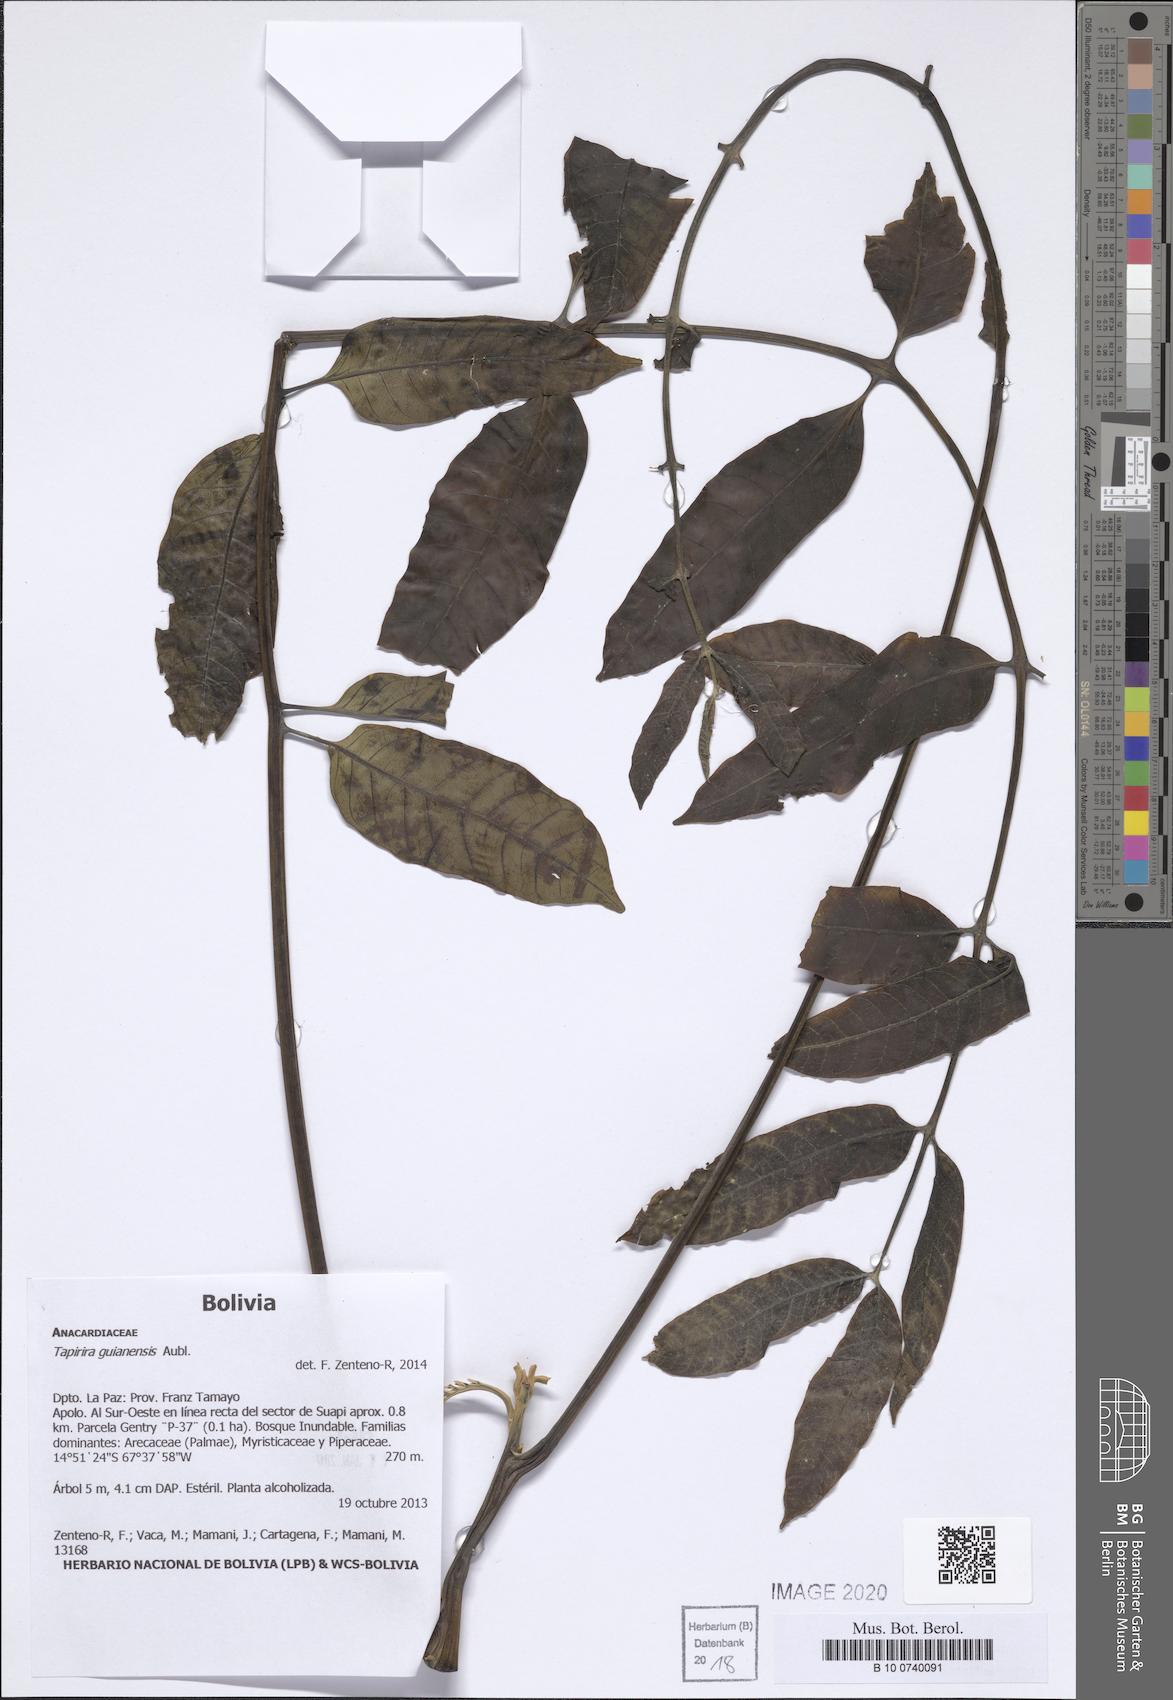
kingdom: Plantae
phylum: Tracheophyta
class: Magnoliopsida
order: Sapindales
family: Anacardiaceae
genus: Tapirira
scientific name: Tapirira guianensis
